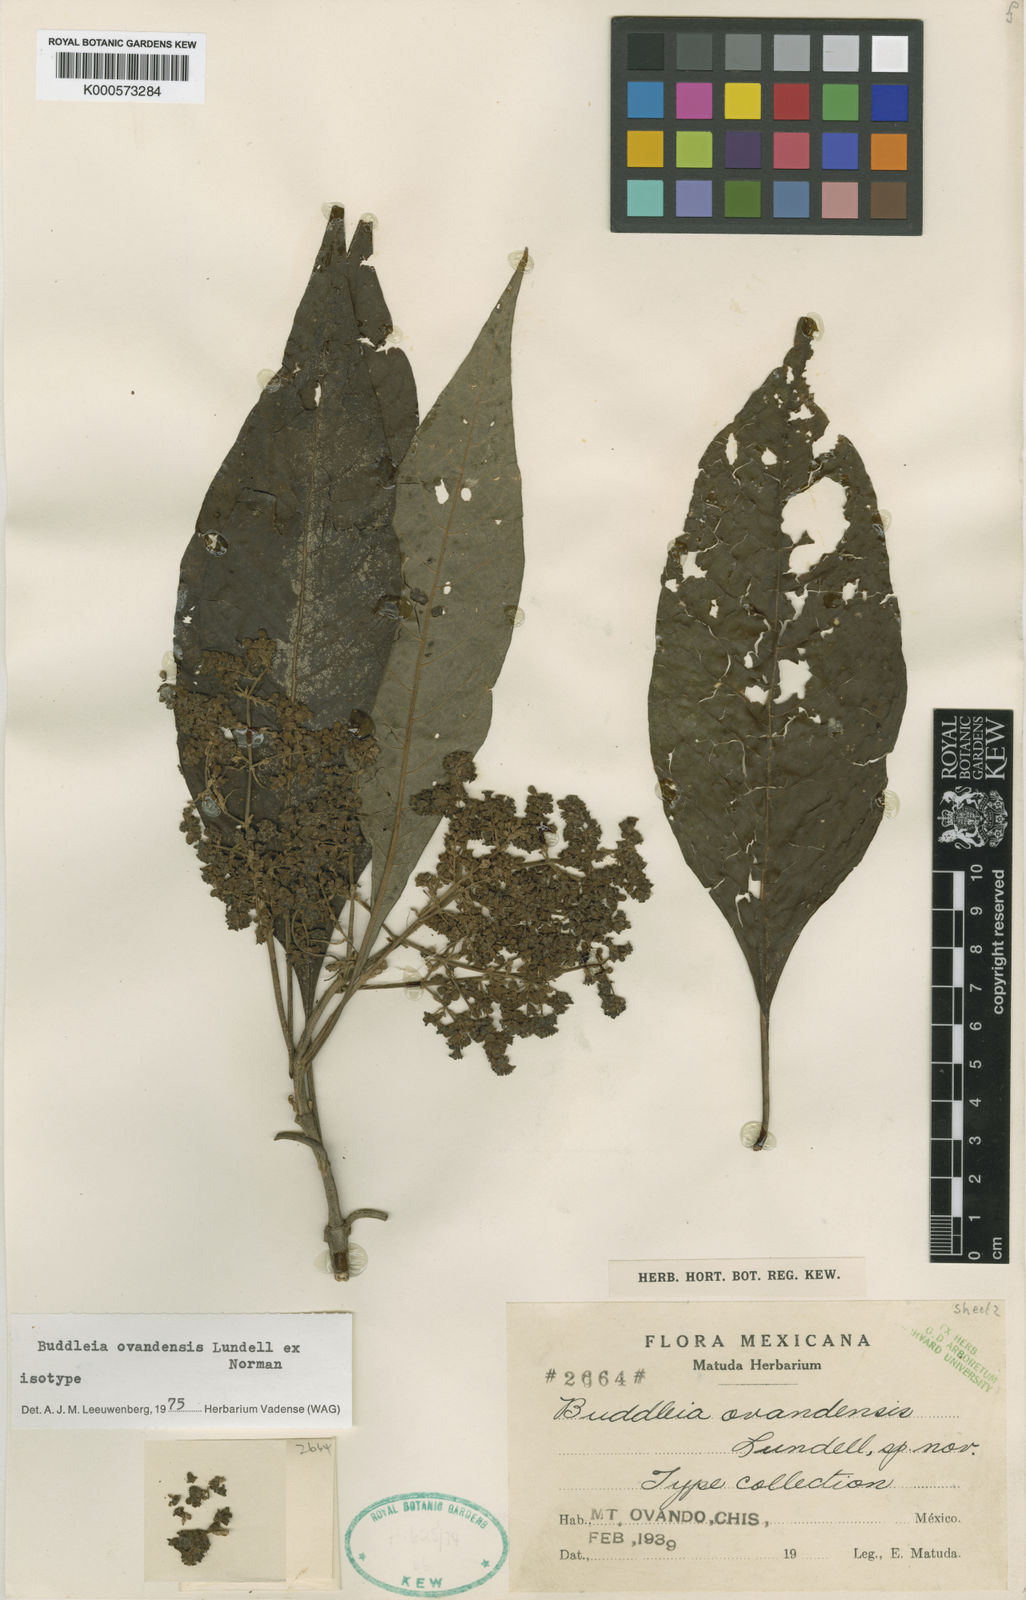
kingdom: Plantae
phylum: Tracheophyta
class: Magnoliopsida
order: Lamiales
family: Scrophulariaceae
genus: Buddleja
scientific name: Buddleja cordata
